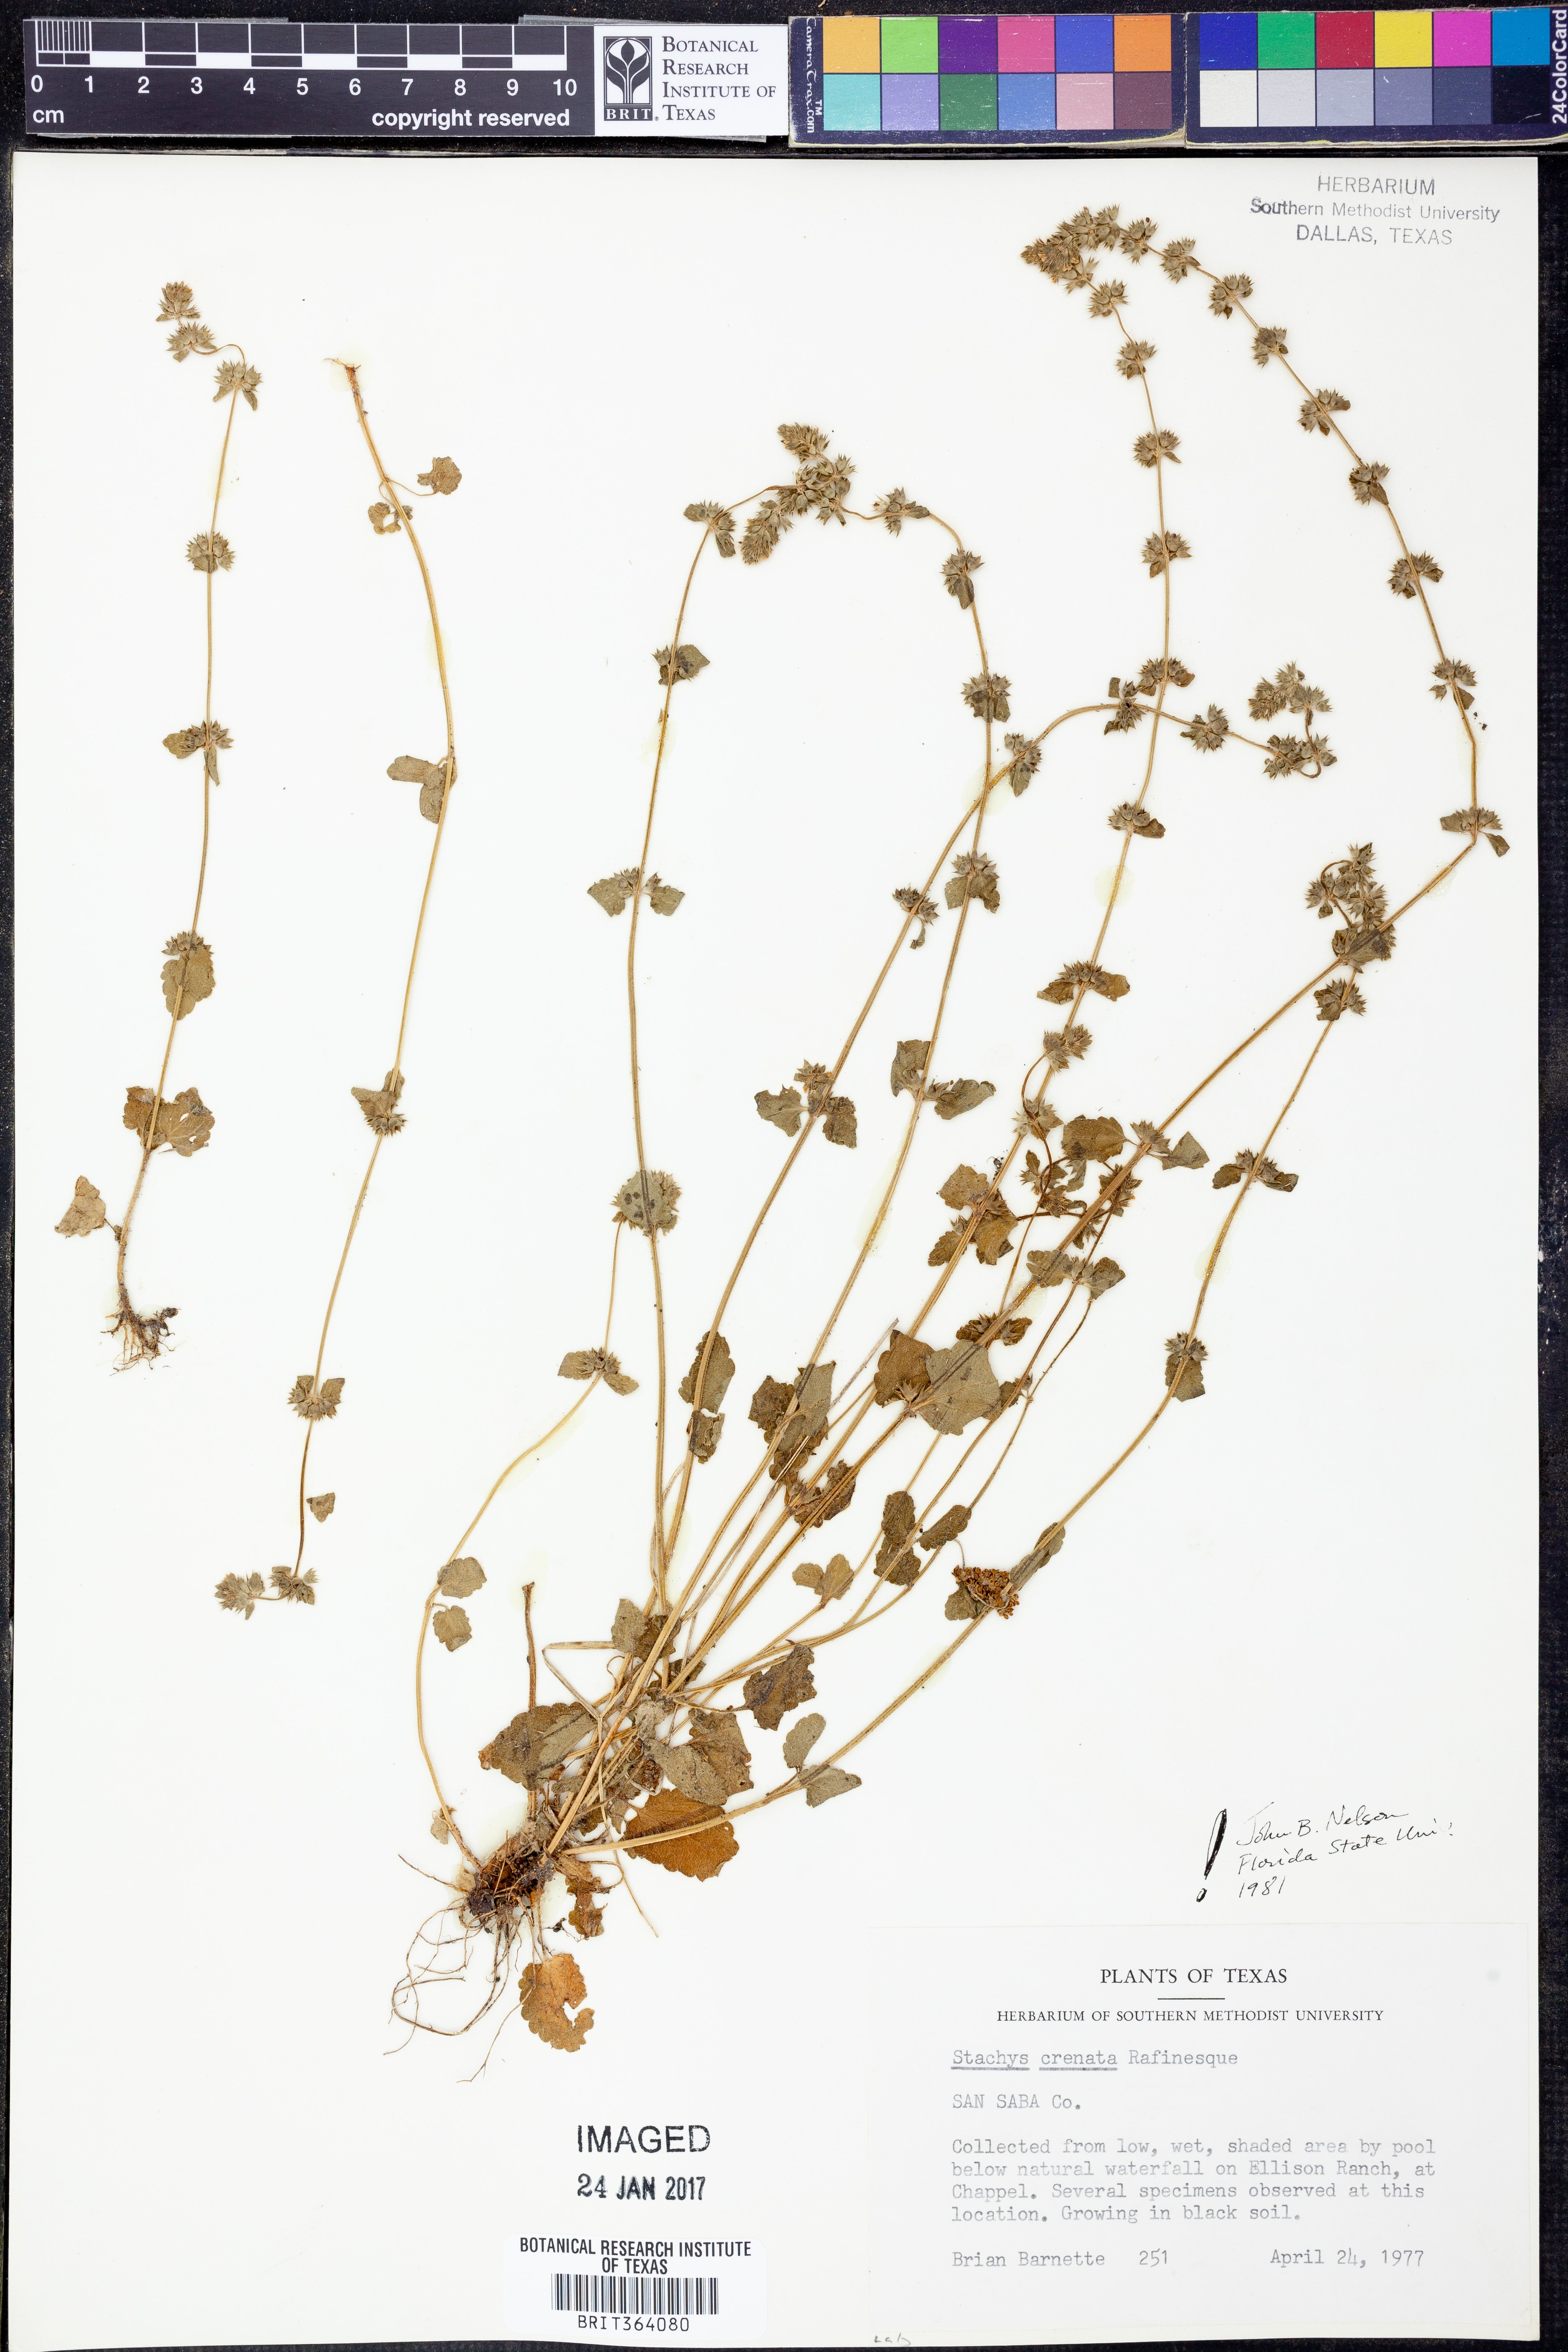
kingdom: Plantae
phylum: Tracheophyta
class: Magnoliopsida
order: Lamiales
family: Lamiaceae
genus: Stachys
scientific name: Stachys agraria
